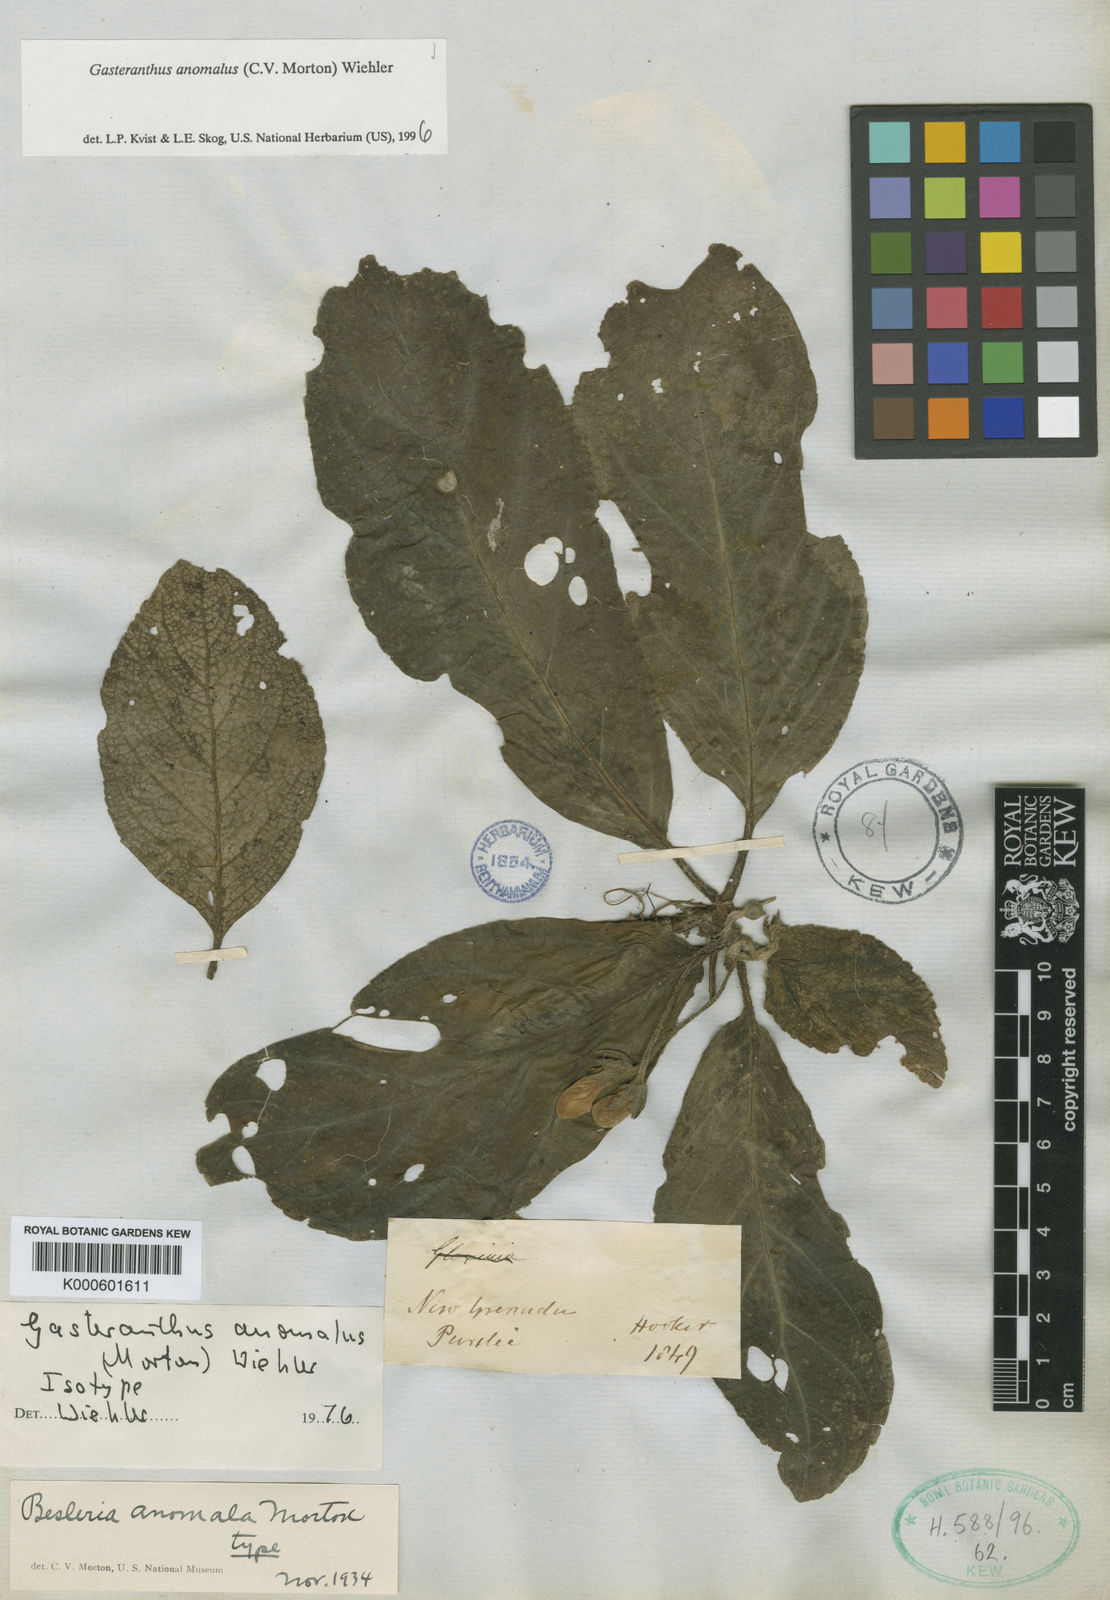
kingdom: Plantae
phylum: Tracheophyta
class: Magnoliopsida
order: Lamiales
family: Gesneriaceae
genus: Gasteranthus
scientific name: Gasteranthus anomalus
